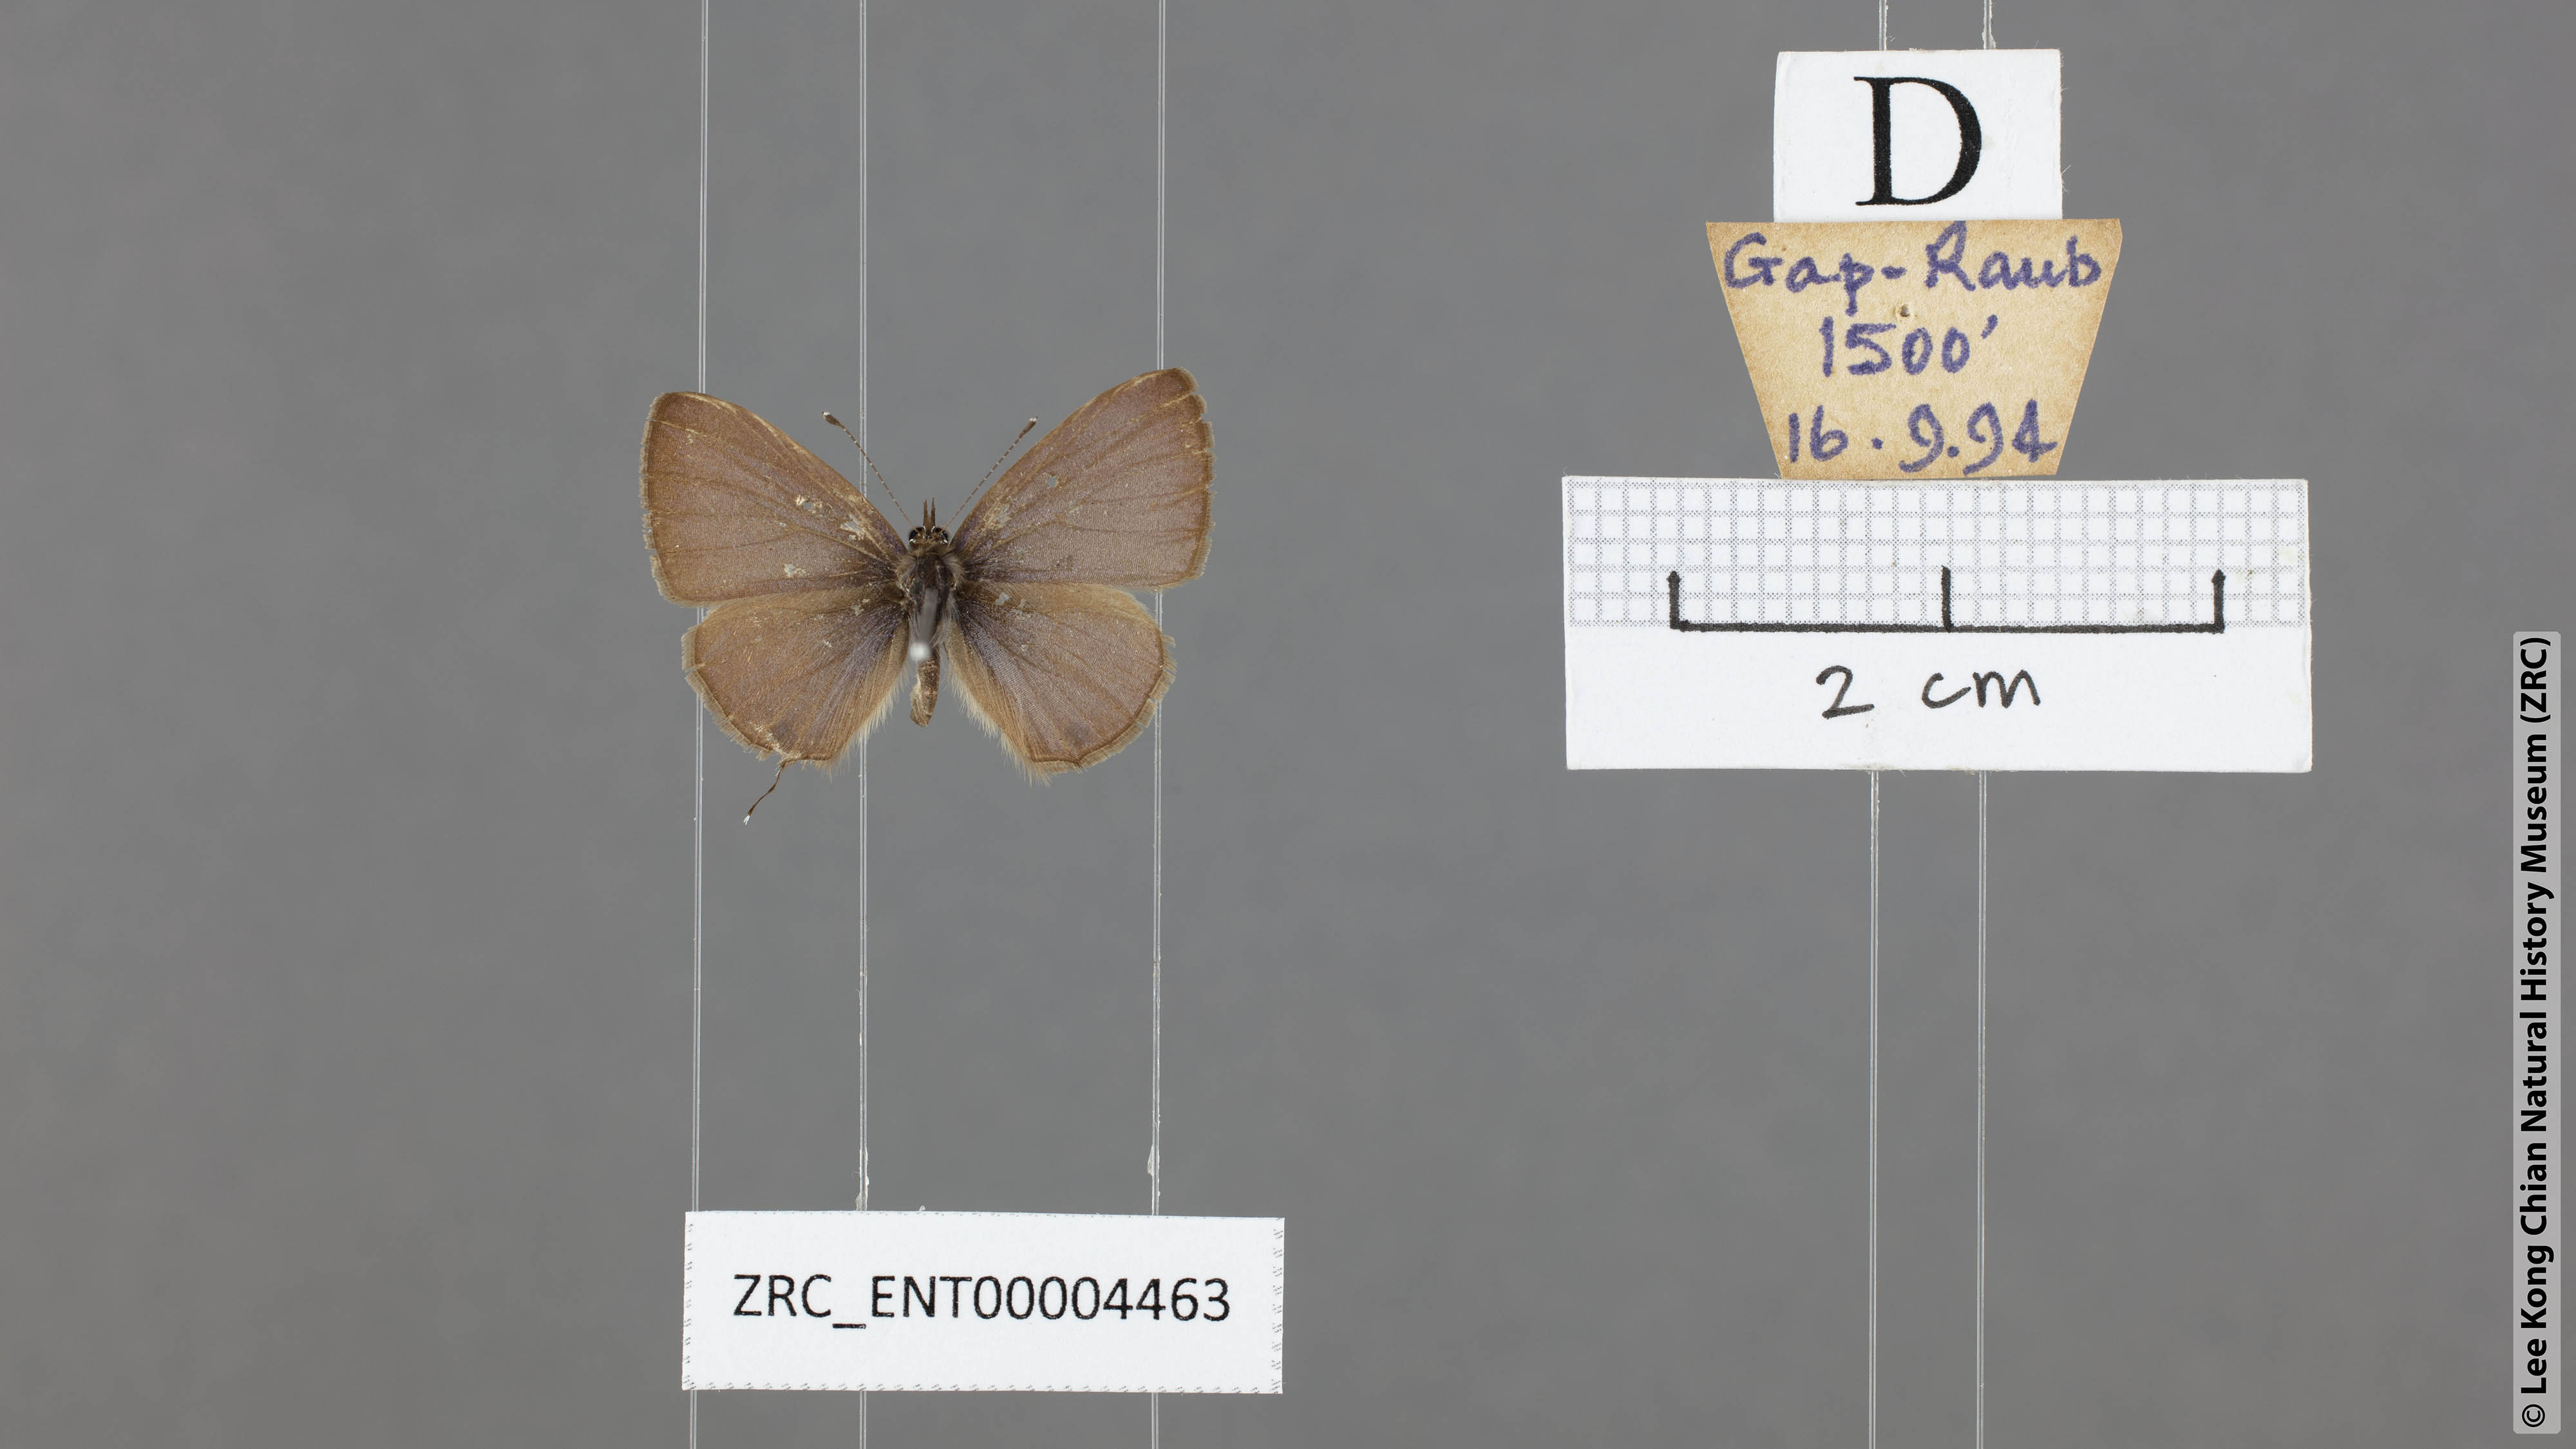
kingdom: Animalia
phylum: Arthropoda
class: Insecta
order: Lepidoptera
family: Lycaenidae
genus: Prosotas
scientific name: Prosotas pia
